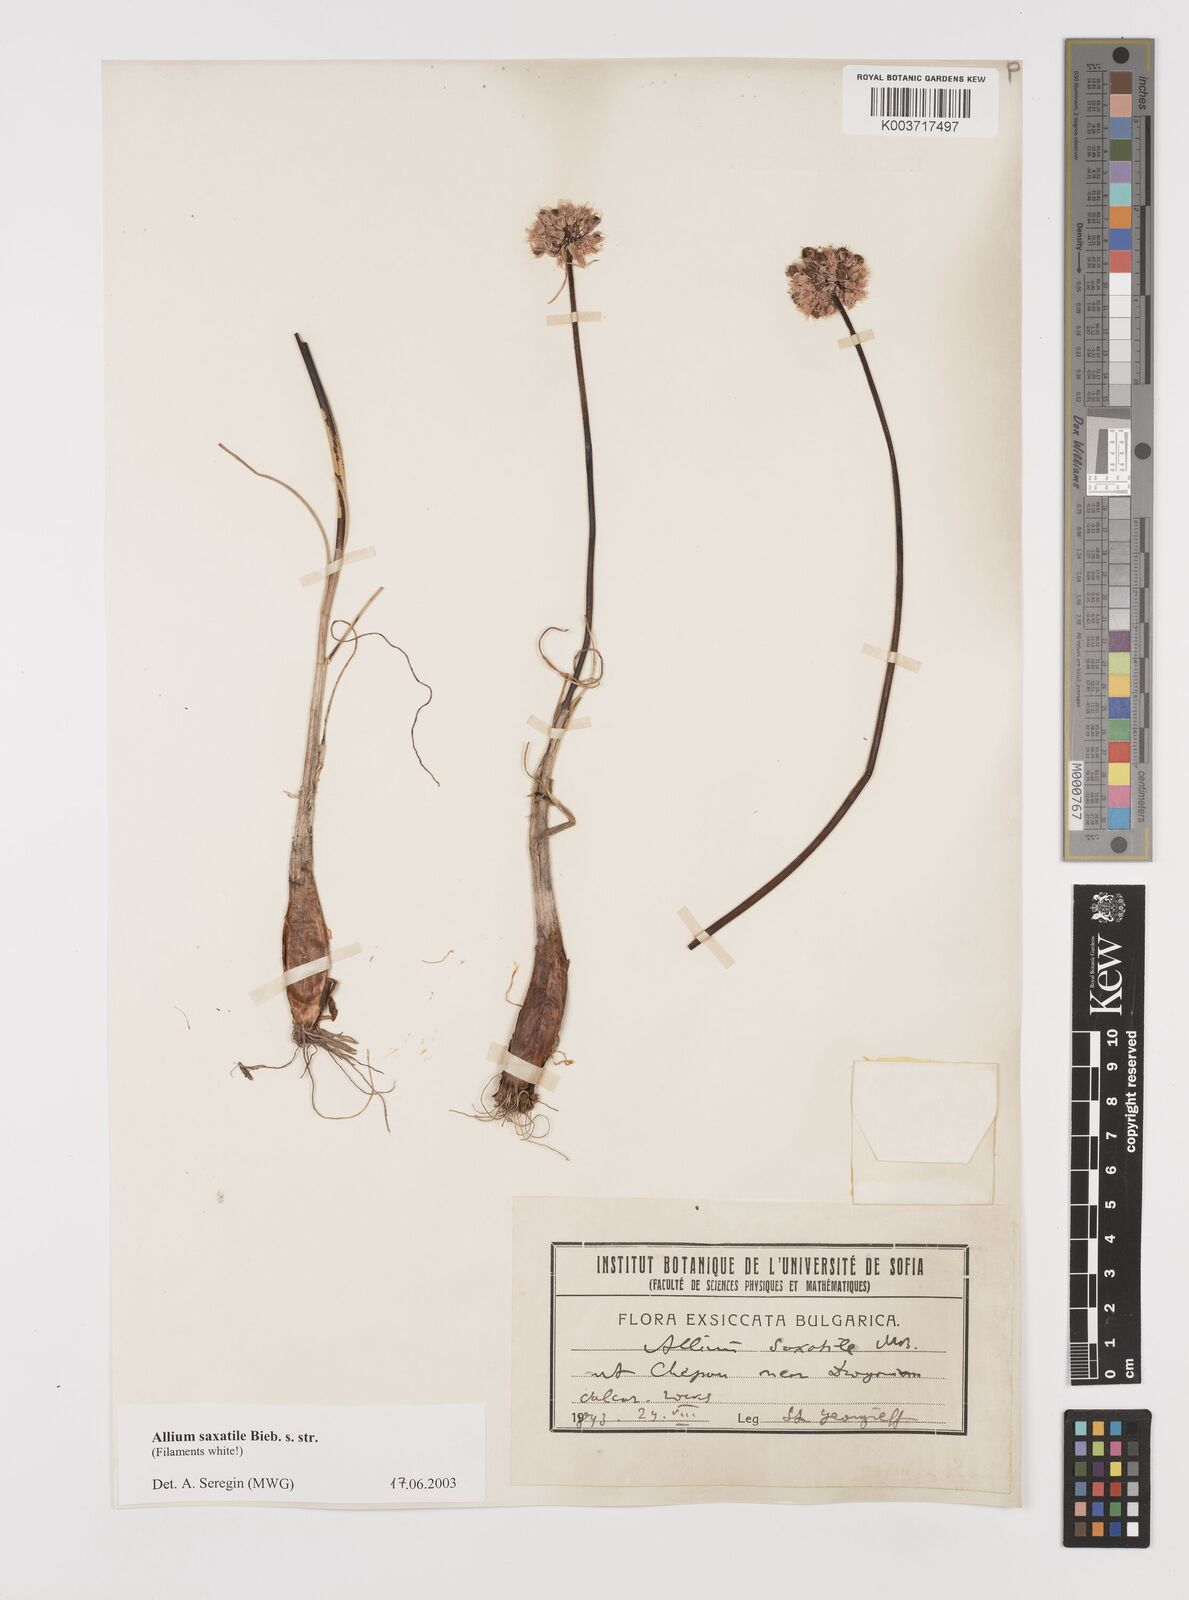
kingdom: Plantae
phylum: Tracheophyta
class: Liliopsida
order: Asparagales
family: Amaryllidaceae
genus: Allium
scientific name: Allium saxatile
